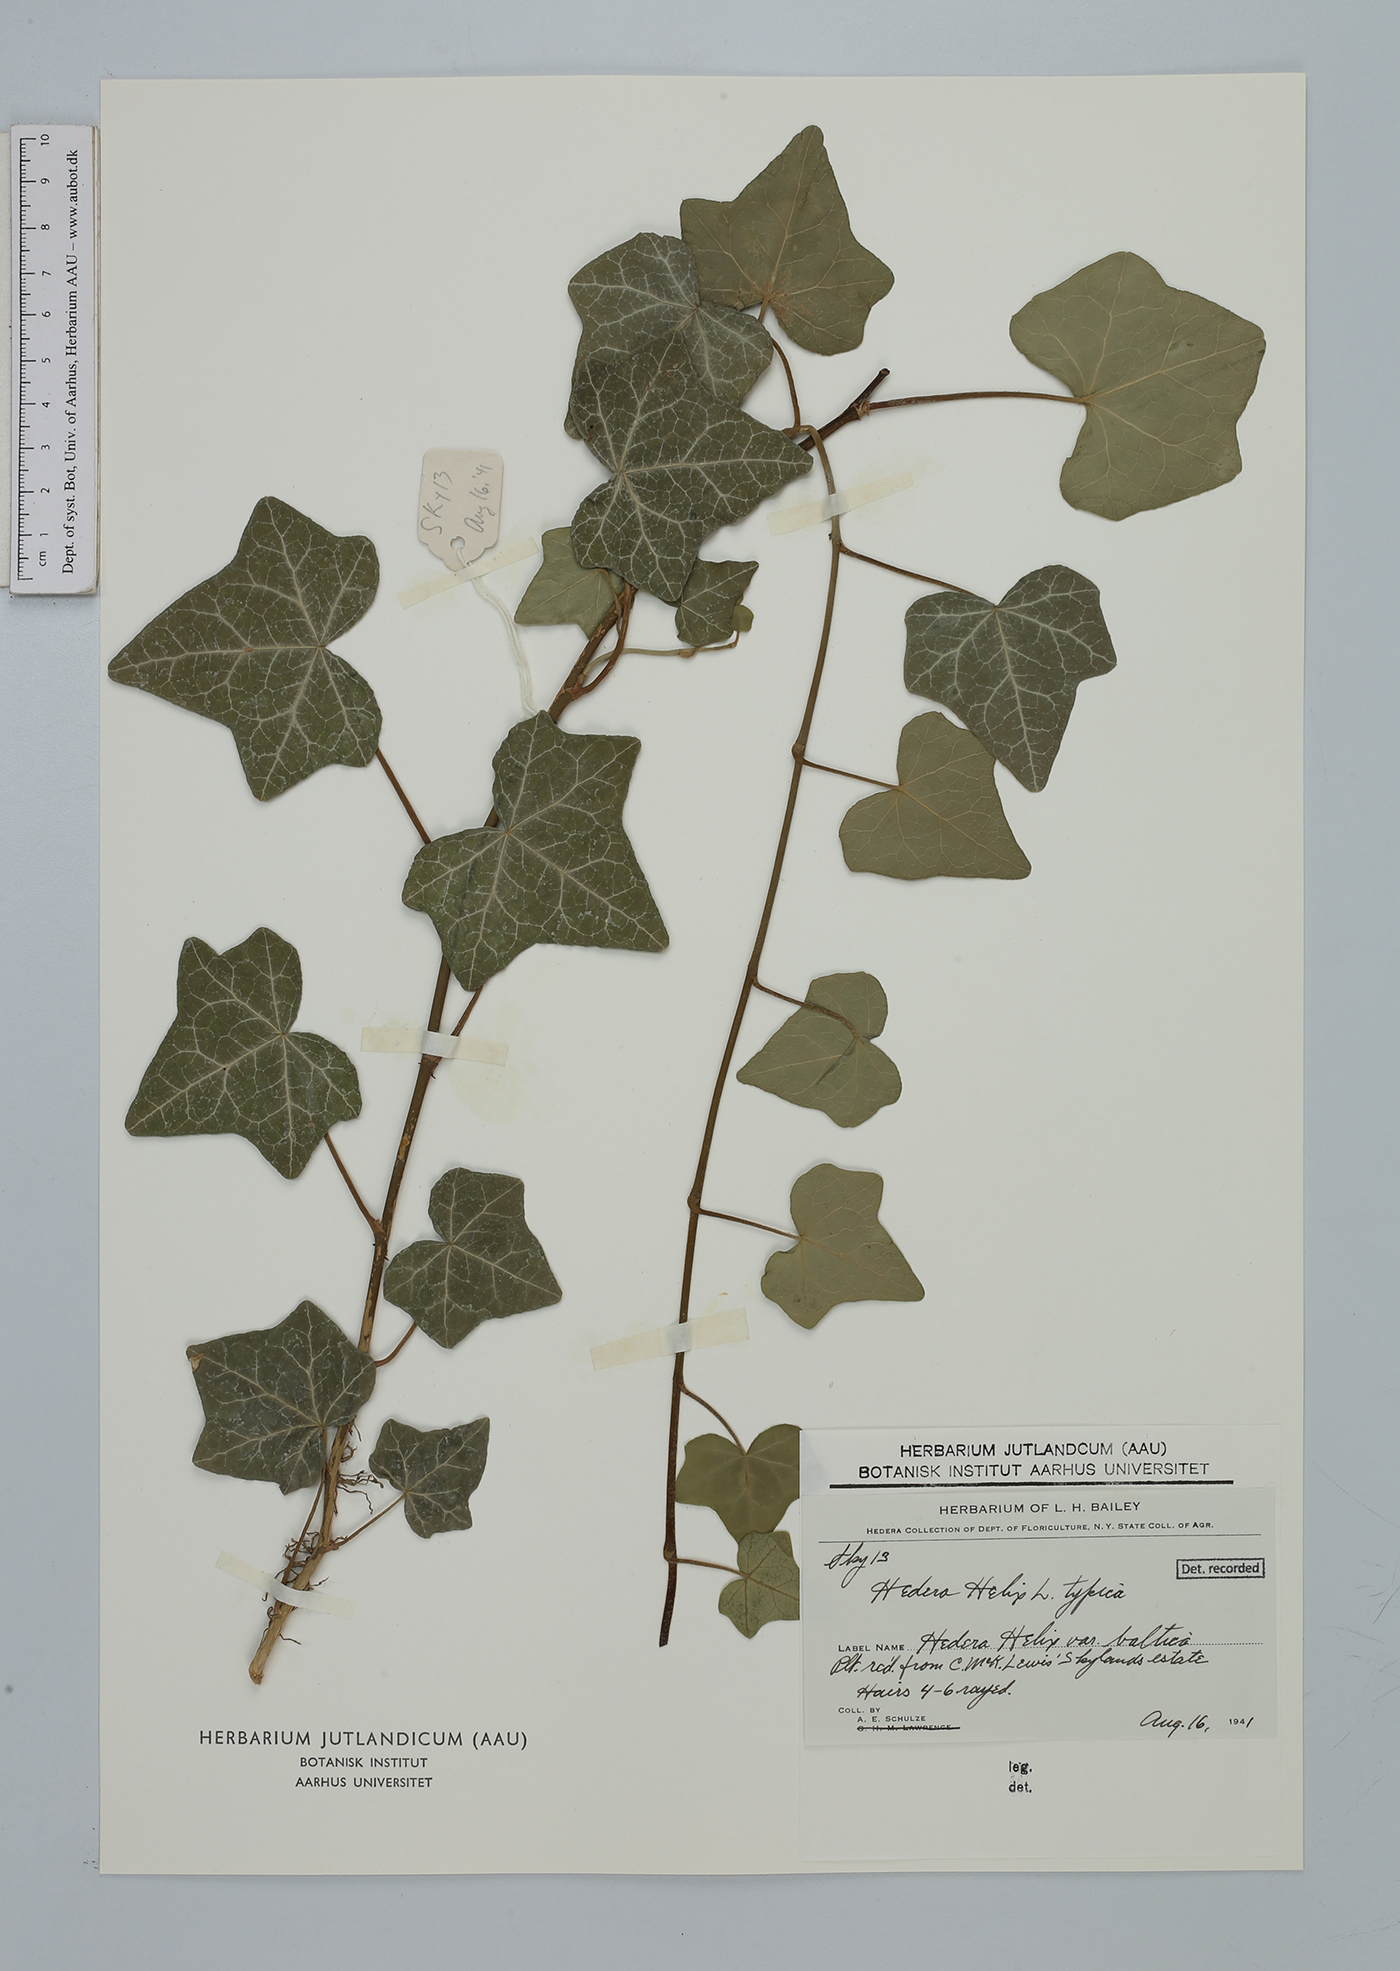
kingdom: Plantae
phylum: Tracheophyta
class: Magnoliopsida
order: Apiales
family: Araliaceae
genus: Hedera
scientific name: Hedera helix
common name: Ivy
